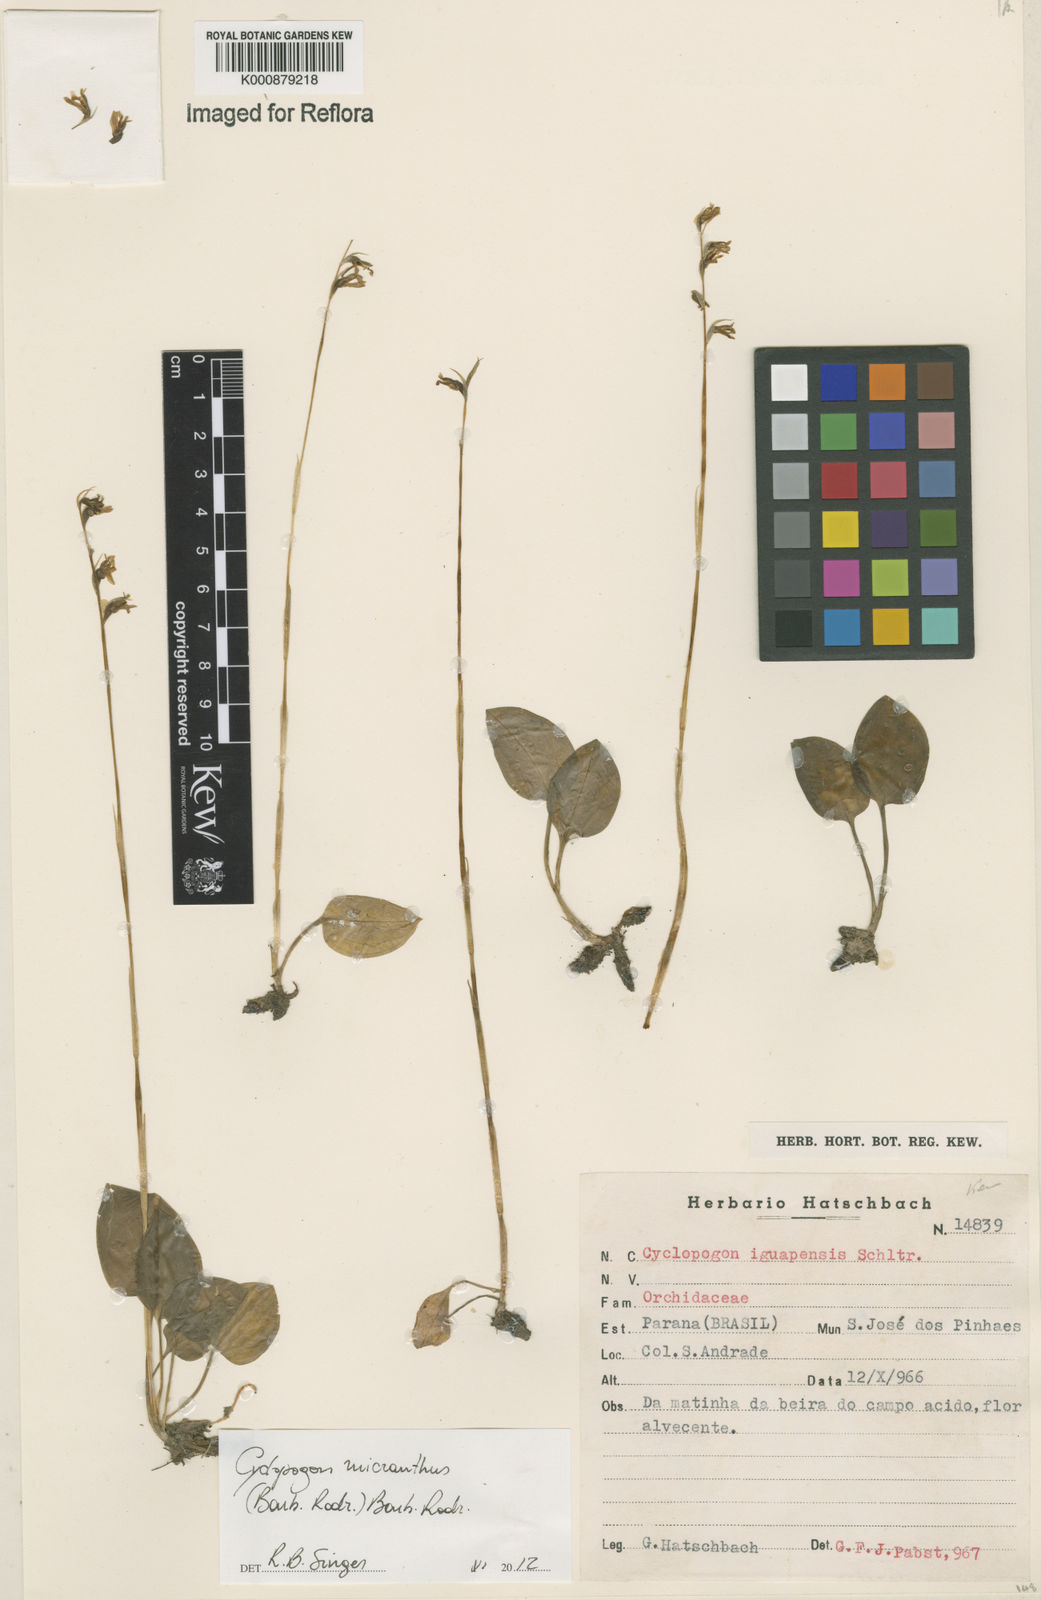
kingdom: Plantae
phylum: Tracheophyta
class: Liliopsida
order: Asparagales
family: Orchidaceae
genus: Cyclopogon
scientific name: Cyclopogon
